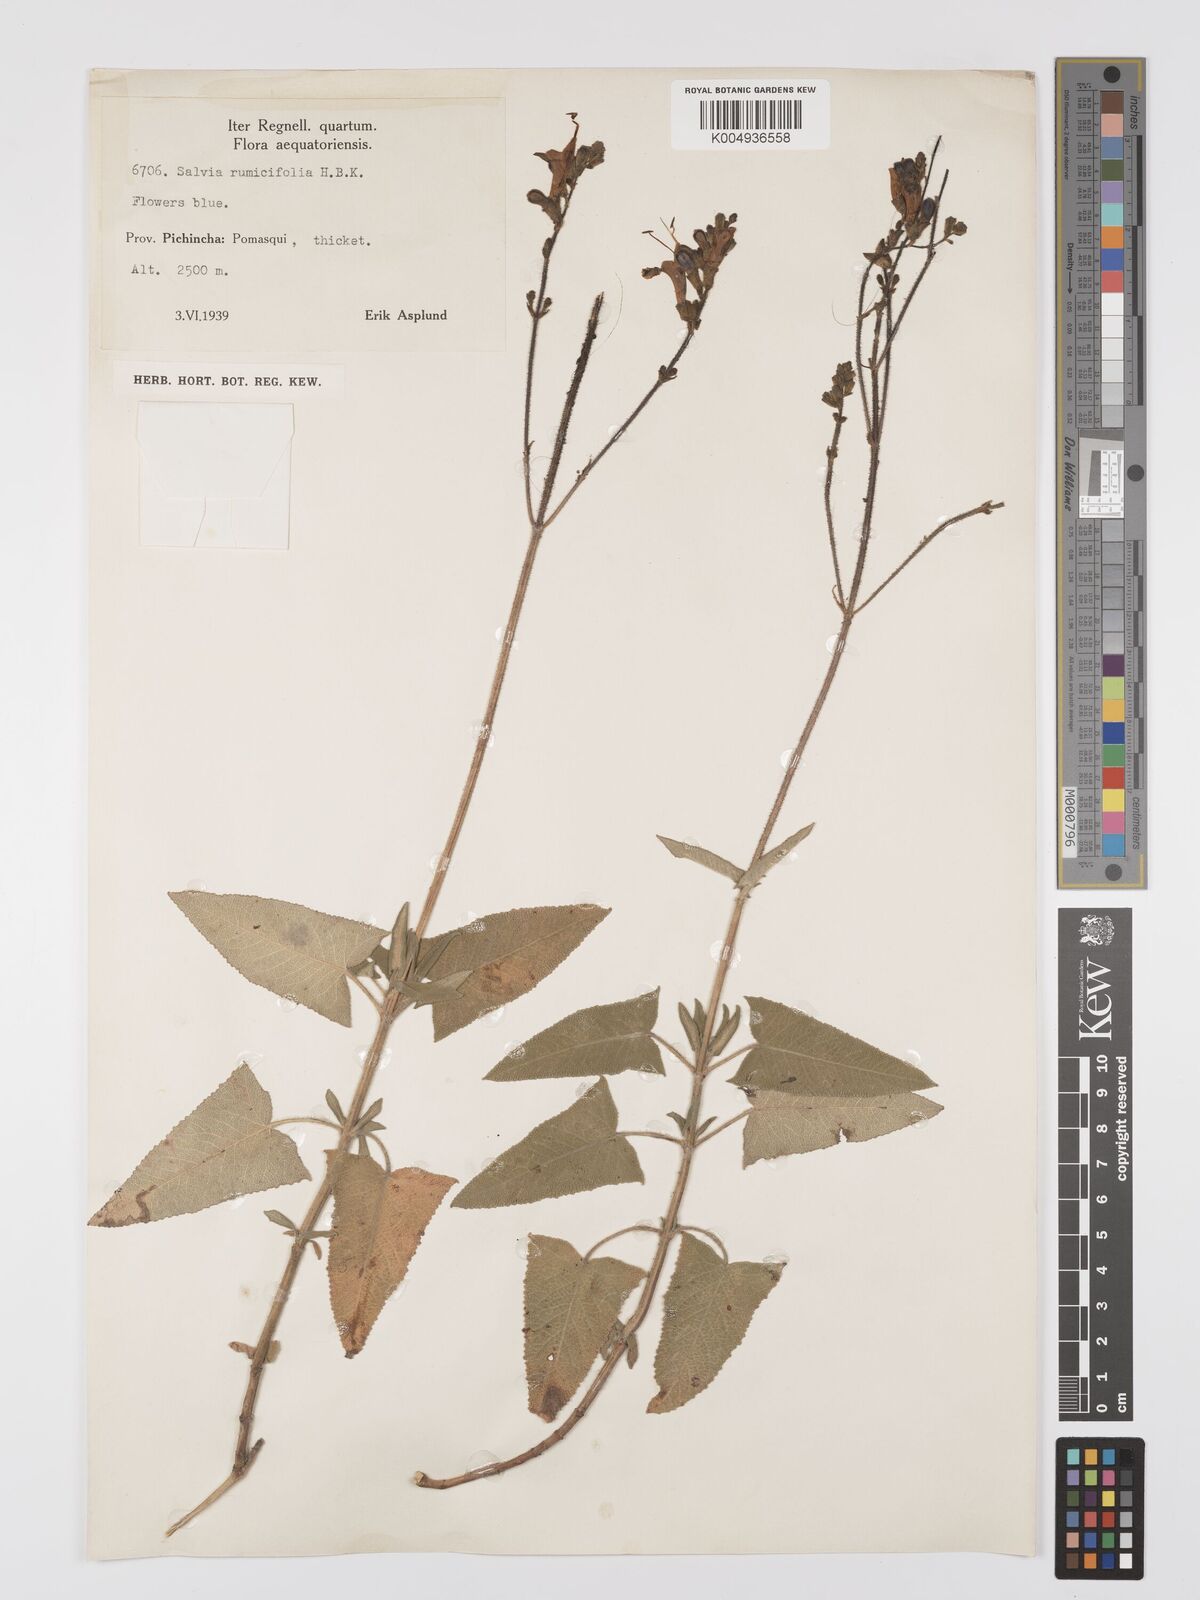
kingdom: Plantae
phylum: Tracheophyta
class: Magnoliopsida
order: Lamiales
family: Lamiaceae
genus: Salvia
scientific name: Salvia sagittata
